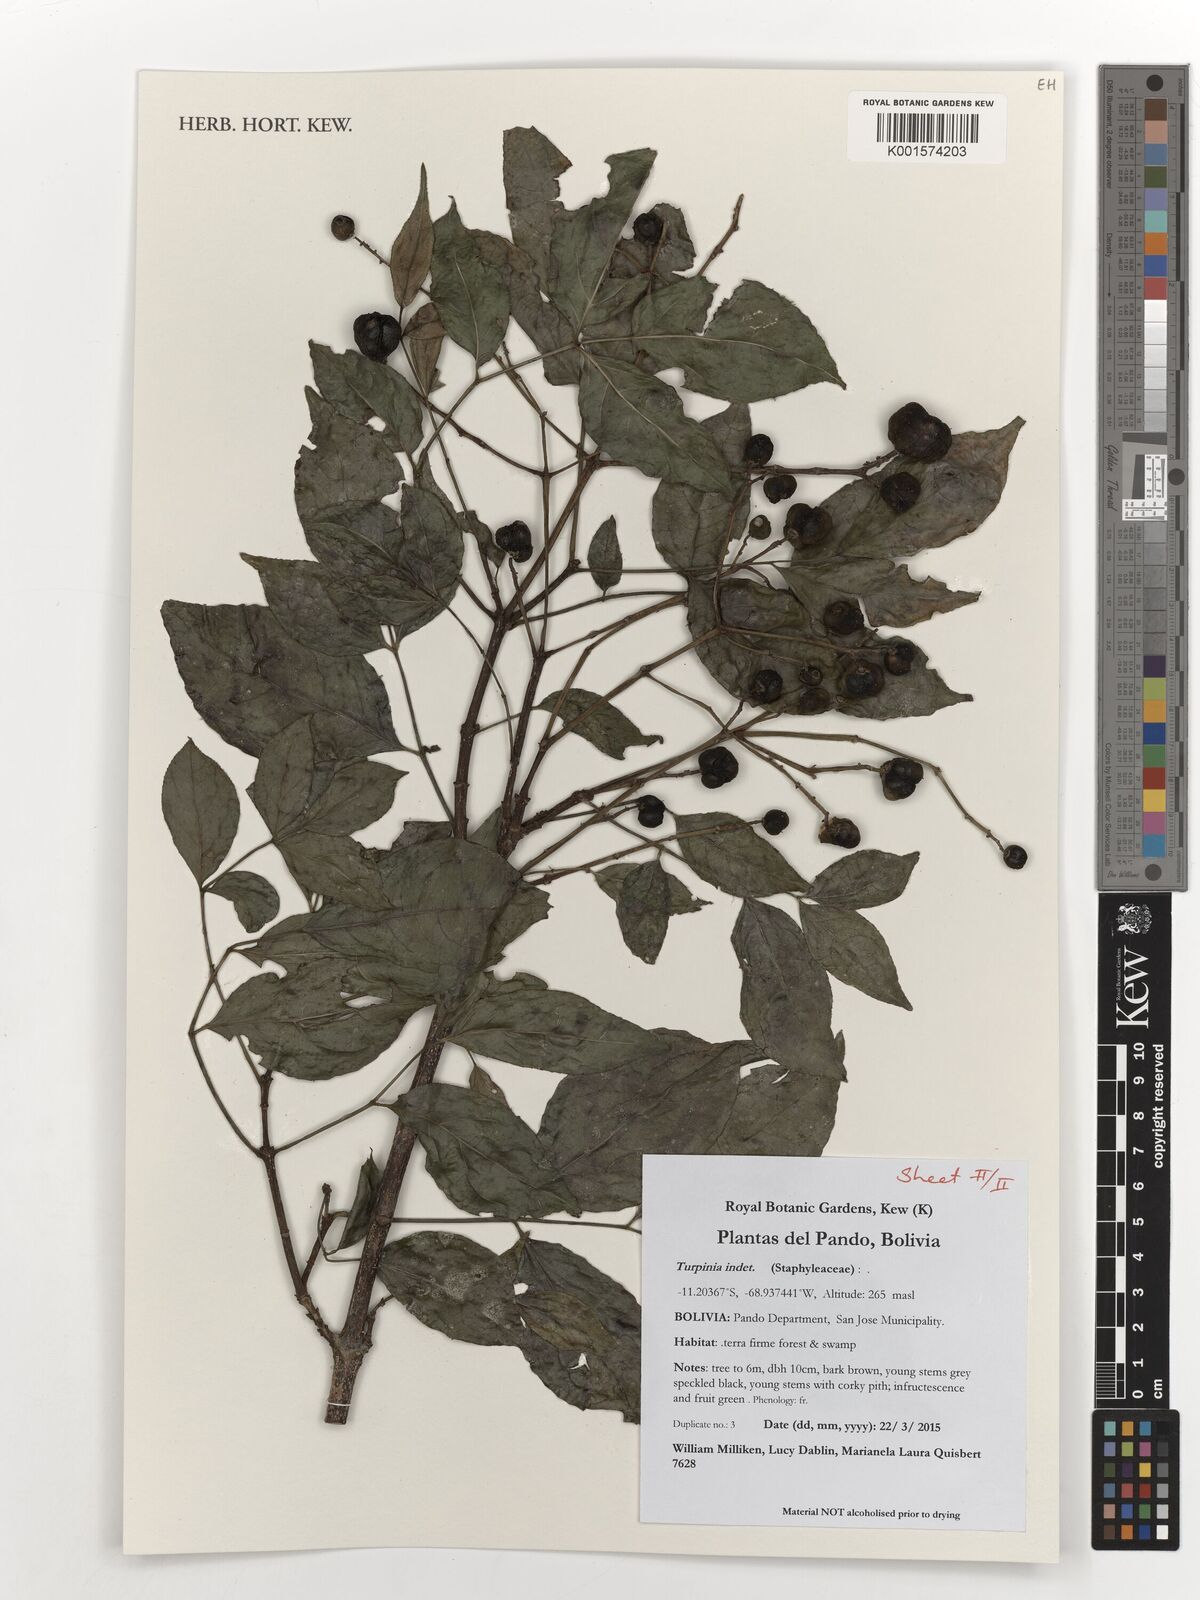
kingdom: Plantae
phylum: Tracheophyta
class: Magnoliopsida
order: Crossosomatales
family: Staphyleaceae
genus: Turpinia
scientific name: Turpinia
